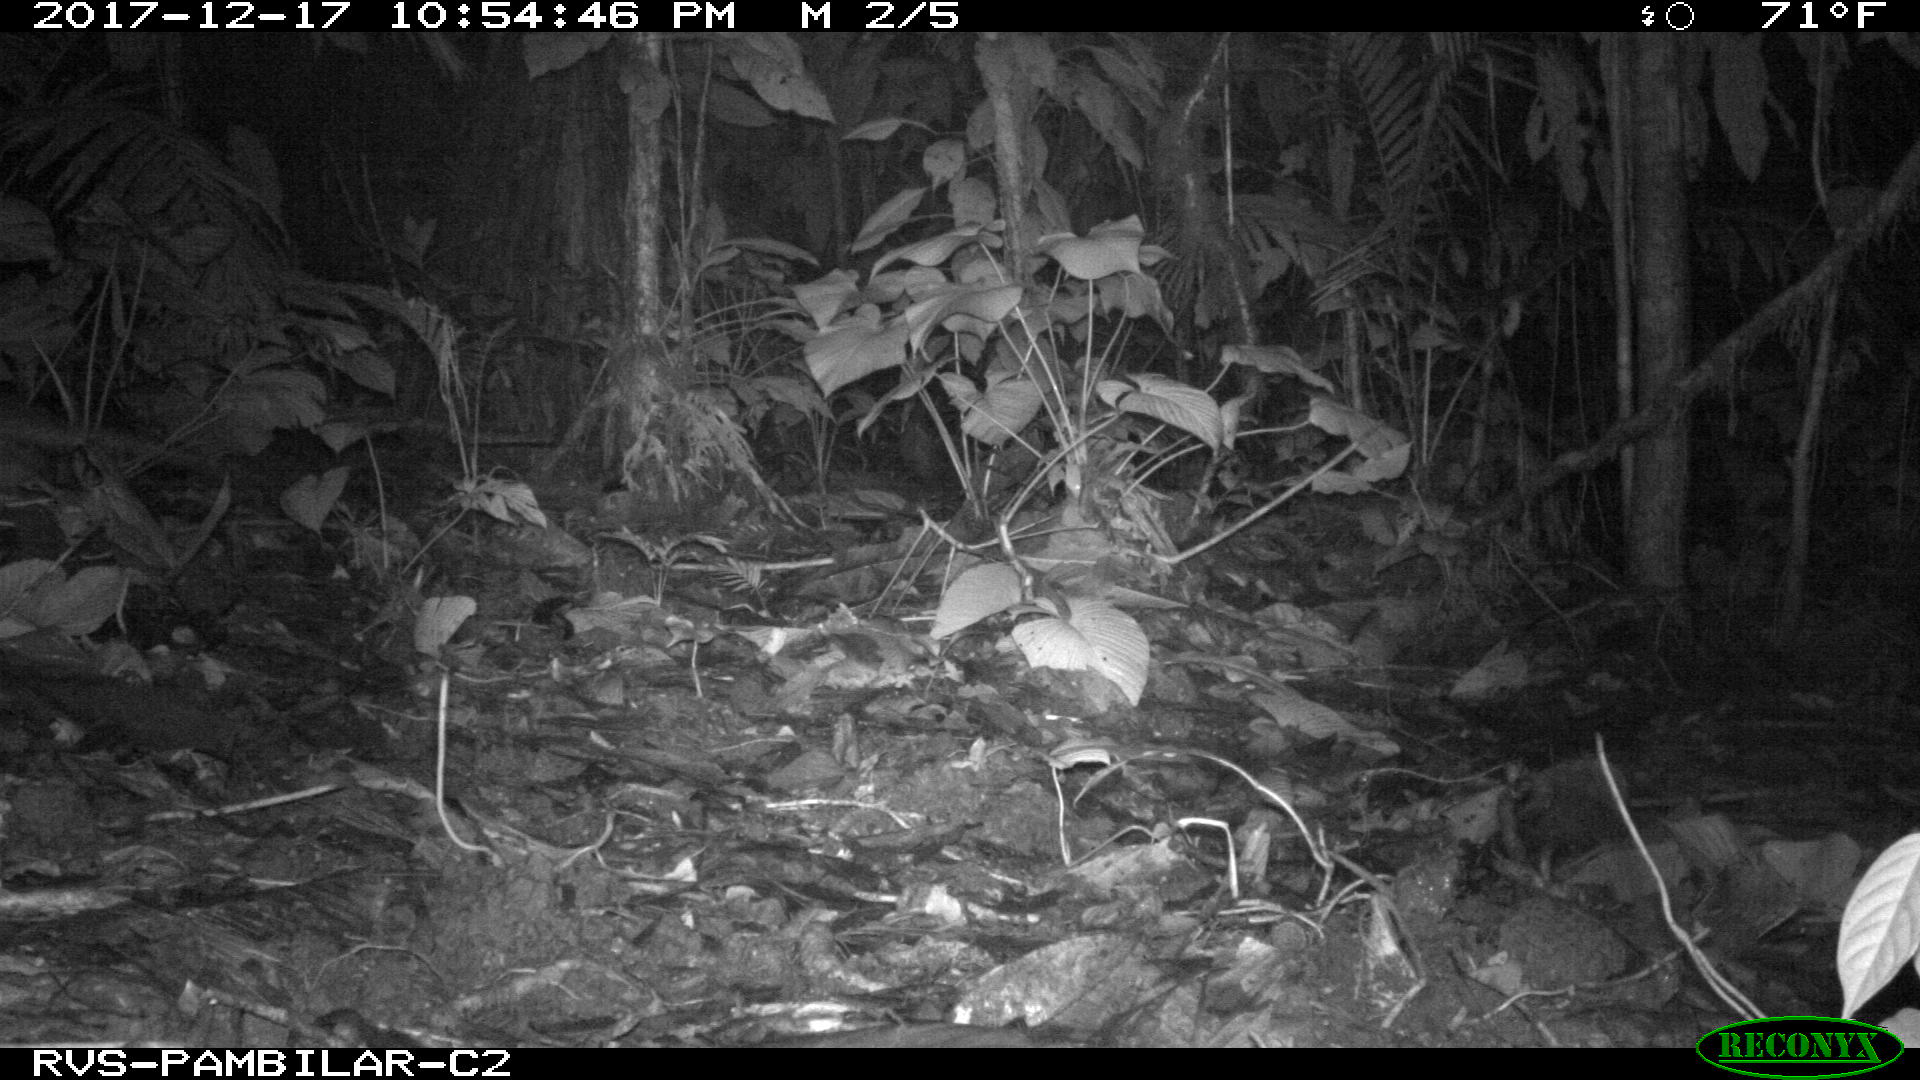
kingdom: Animalia
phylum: Chordata
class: Mammalia
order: Cingulata
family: Dasypodidae
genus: Dasypus
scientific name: Dasypus novemcinctus
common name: Nine-banded armadillo
